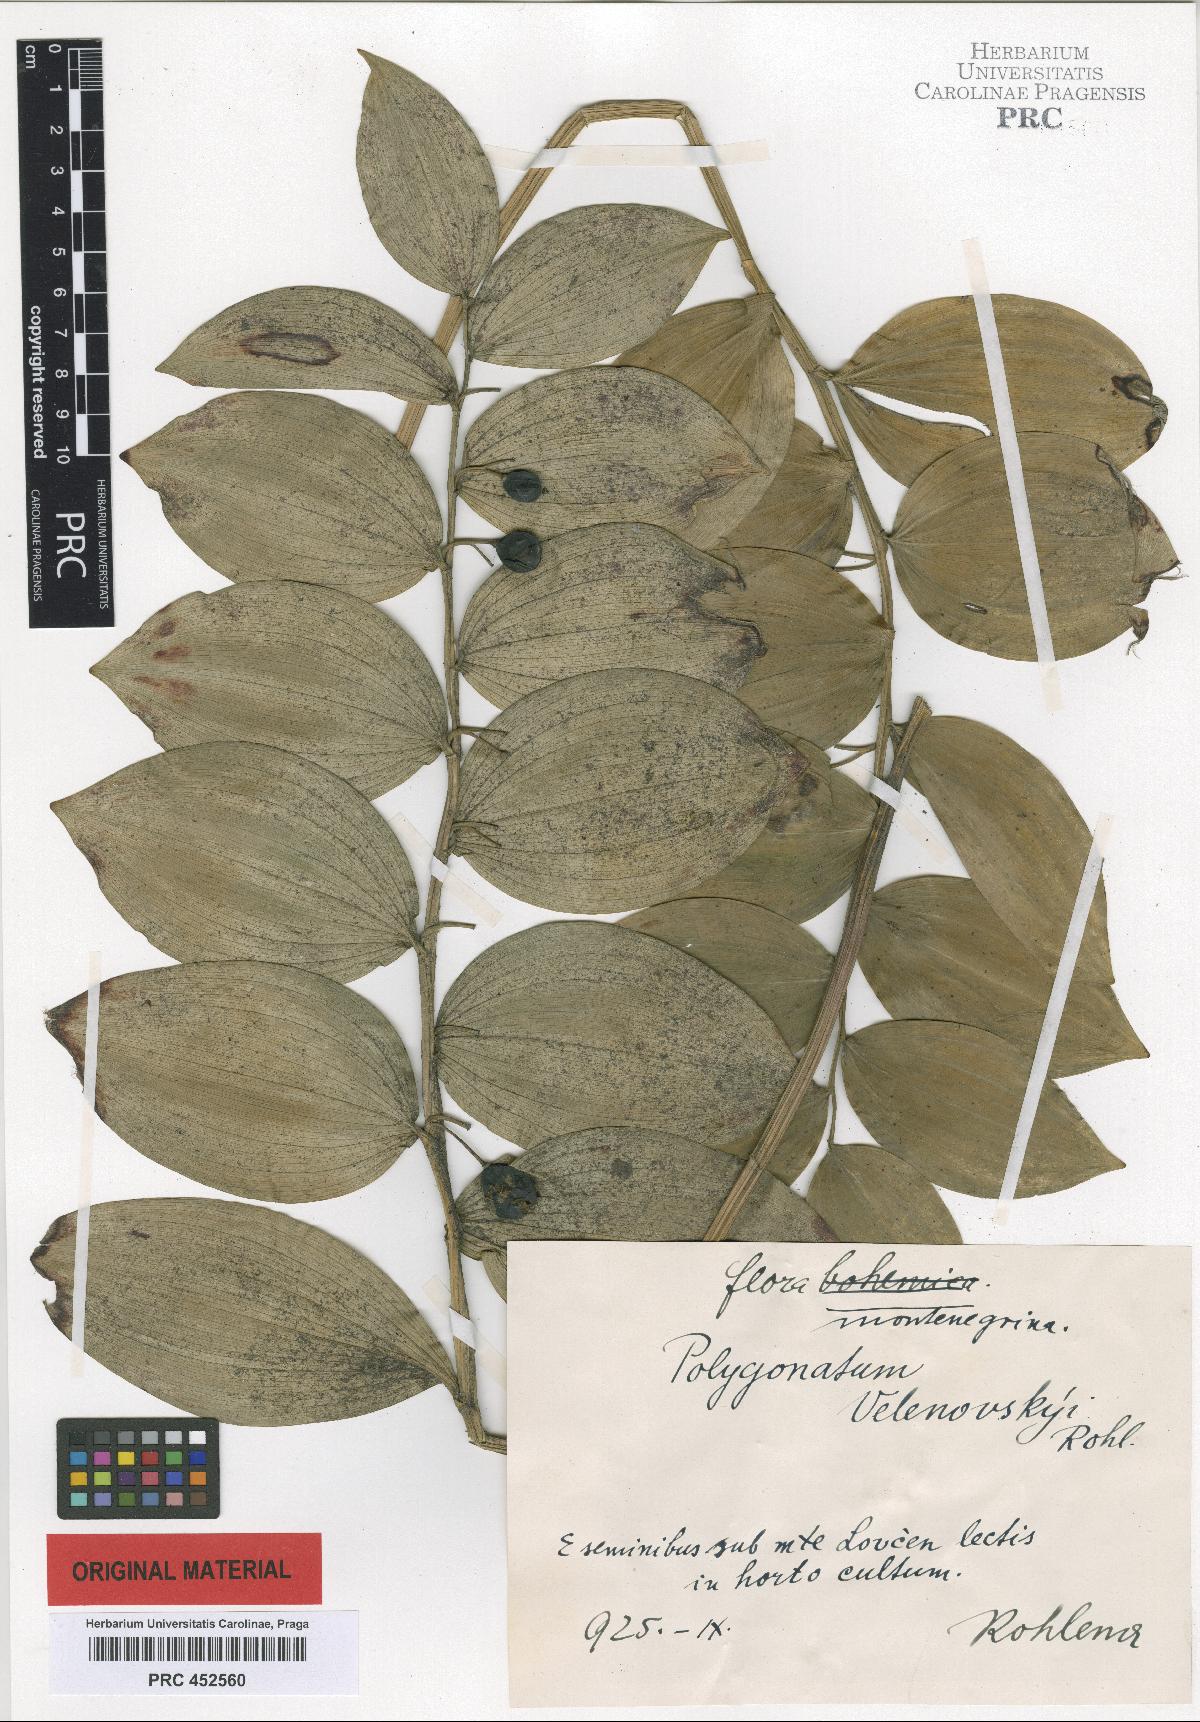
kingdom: Plantae
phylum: Tracheophyta
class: Liliopsida
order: Asparagales
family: Asparagaceae
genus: Polygonatum
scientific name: Polygonatum velenovskyi
